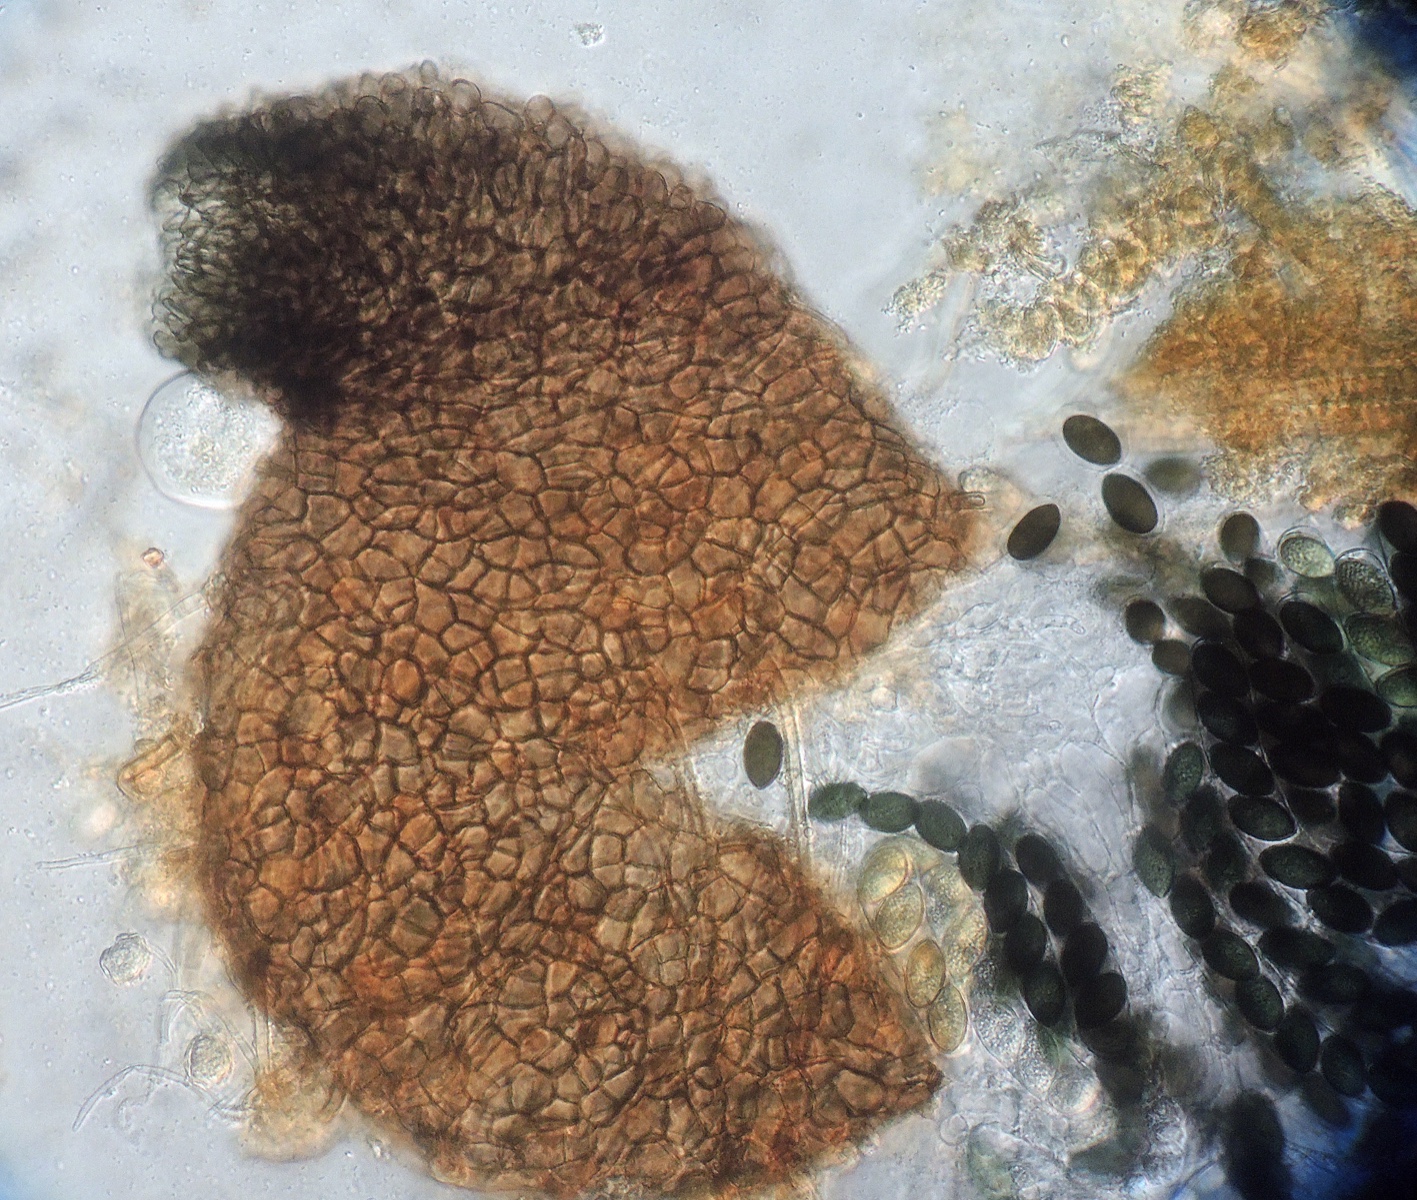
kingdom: Fungi
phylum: Ascomycota
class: Sordariomycetes
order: Sordariales
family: Sordariaceae
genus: Sordaria
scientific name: Sordaria fimicola
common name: gødnings-kernesvamp
